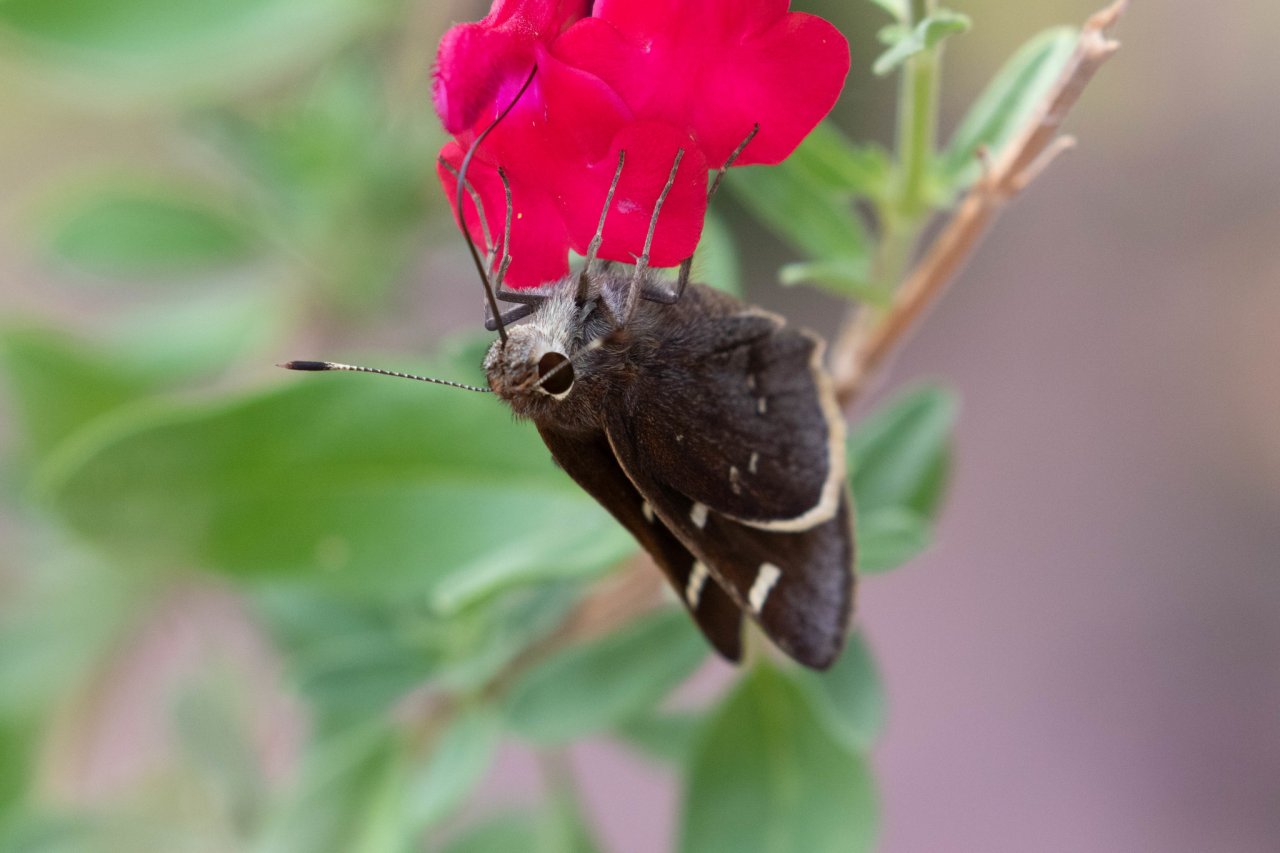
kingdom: Animalia
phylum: Arthropoda
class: Insecta
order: Lepidoptera
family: Hesperiidae
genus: Atrytonopsis
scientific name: Atrytonopsis lunus
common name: Moon-marked Skipper
